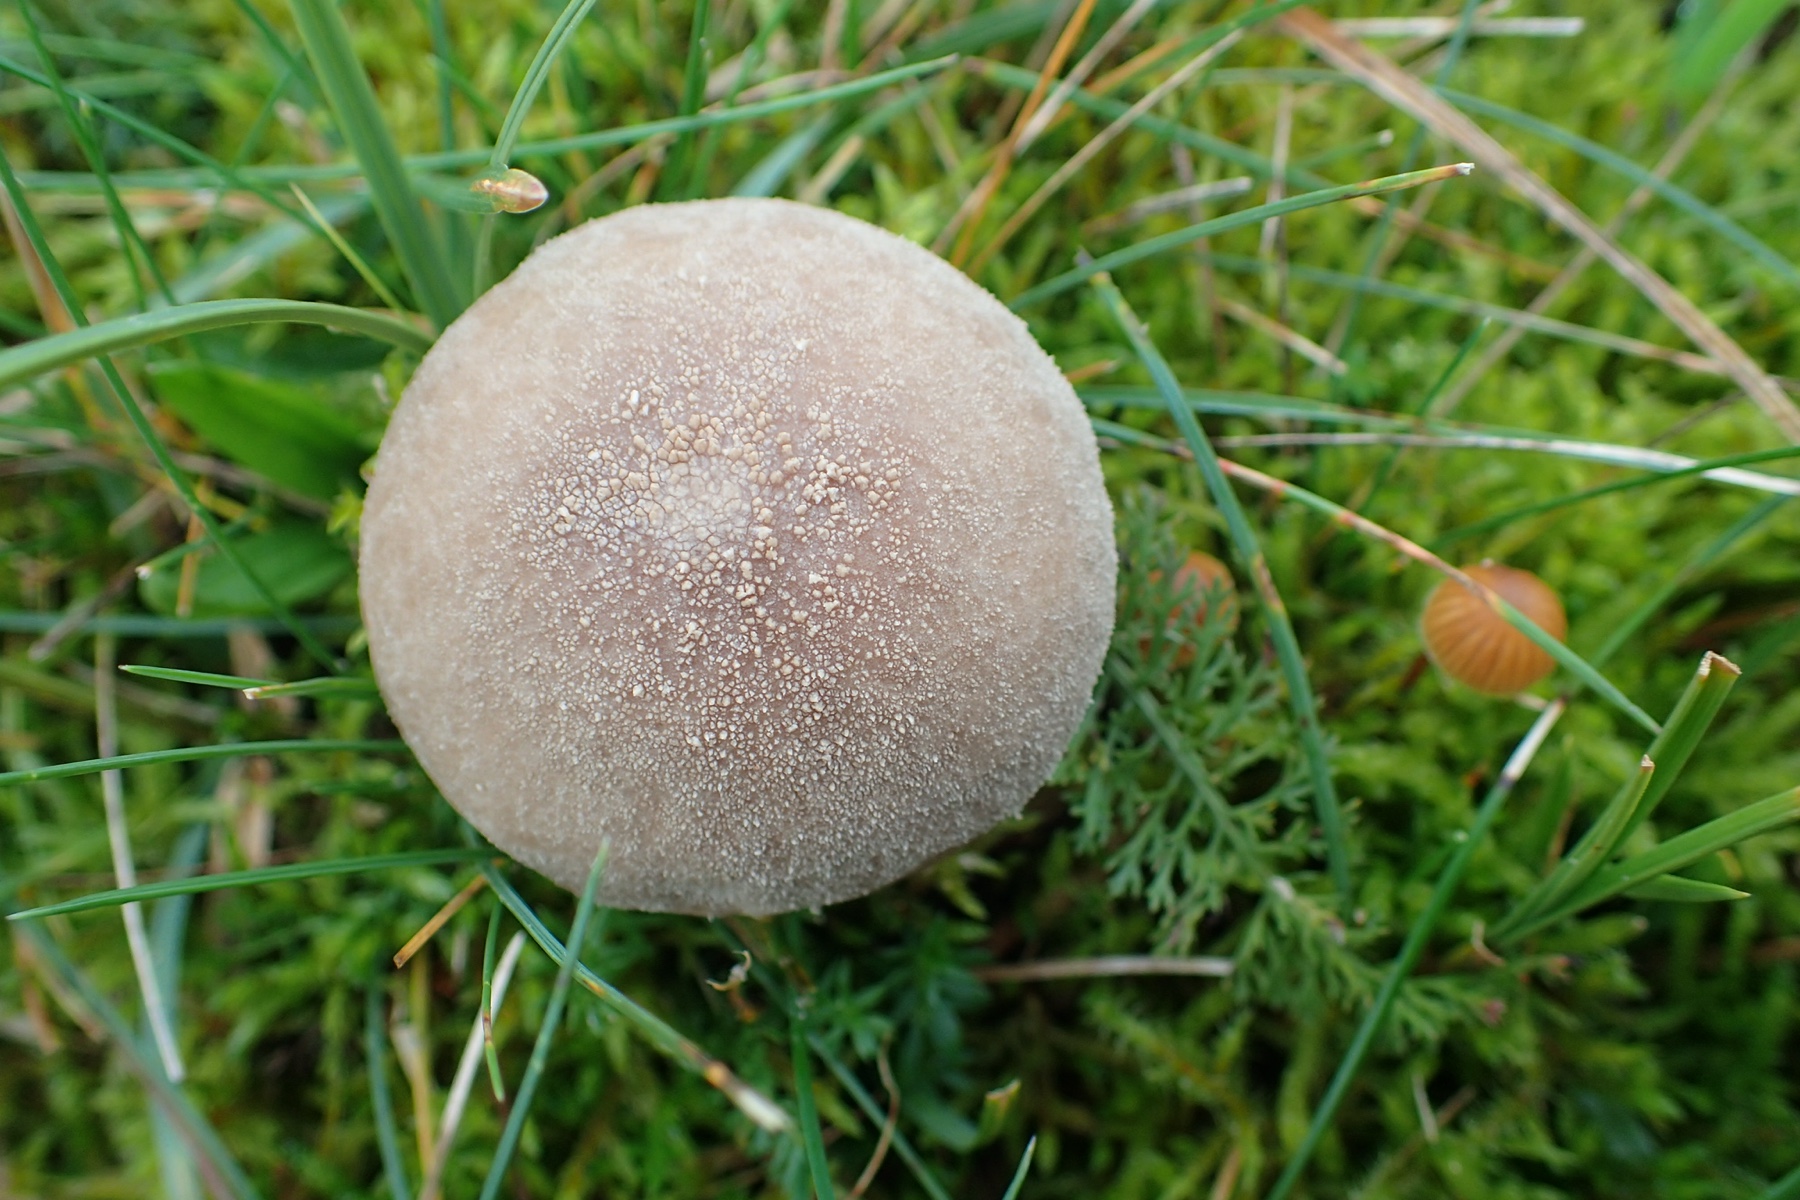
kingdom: Fungi
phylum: Basidiomycota
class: Agaricomycetes
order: Agaricales
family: Agaricaceae
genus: Lycoperdon
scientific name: Lycoperdon
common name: støvbold
